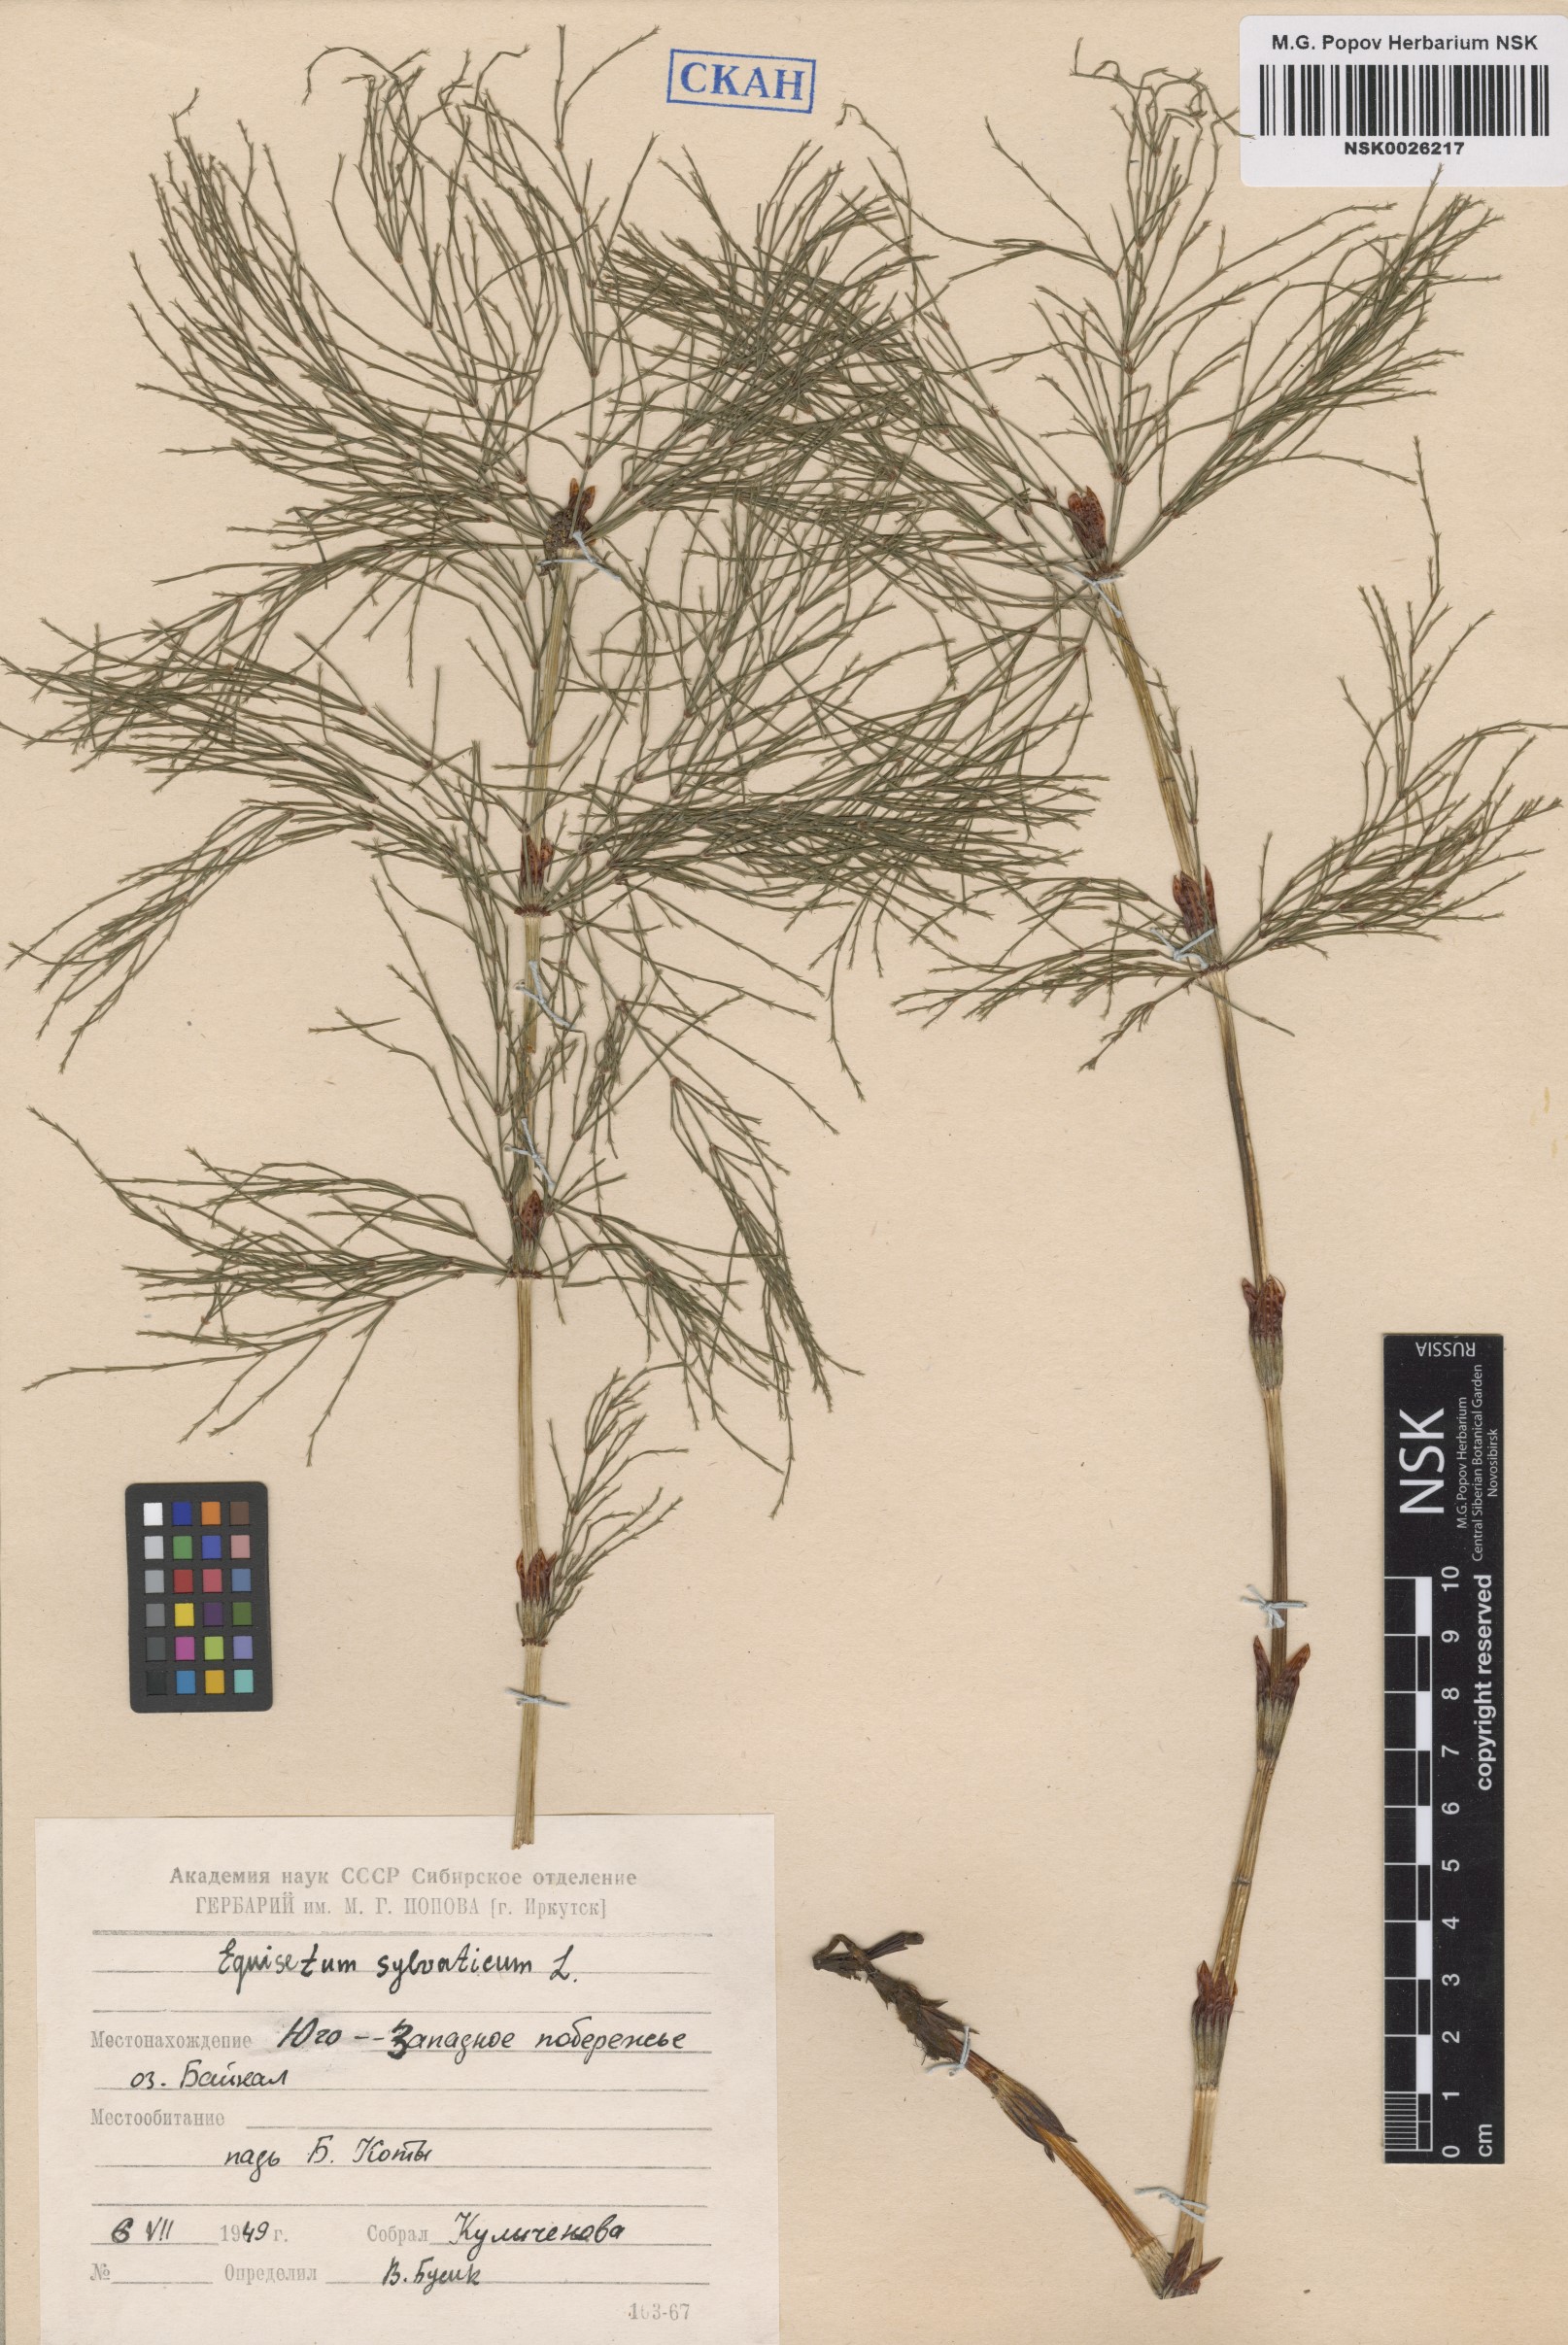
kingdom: Plantae
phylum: Tracheophyta
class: Polypodiopsida
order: Equisetales
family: Equisetaceae
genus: Equisetum
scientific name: Equisetum sylvaticum
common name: Wood horsetail
